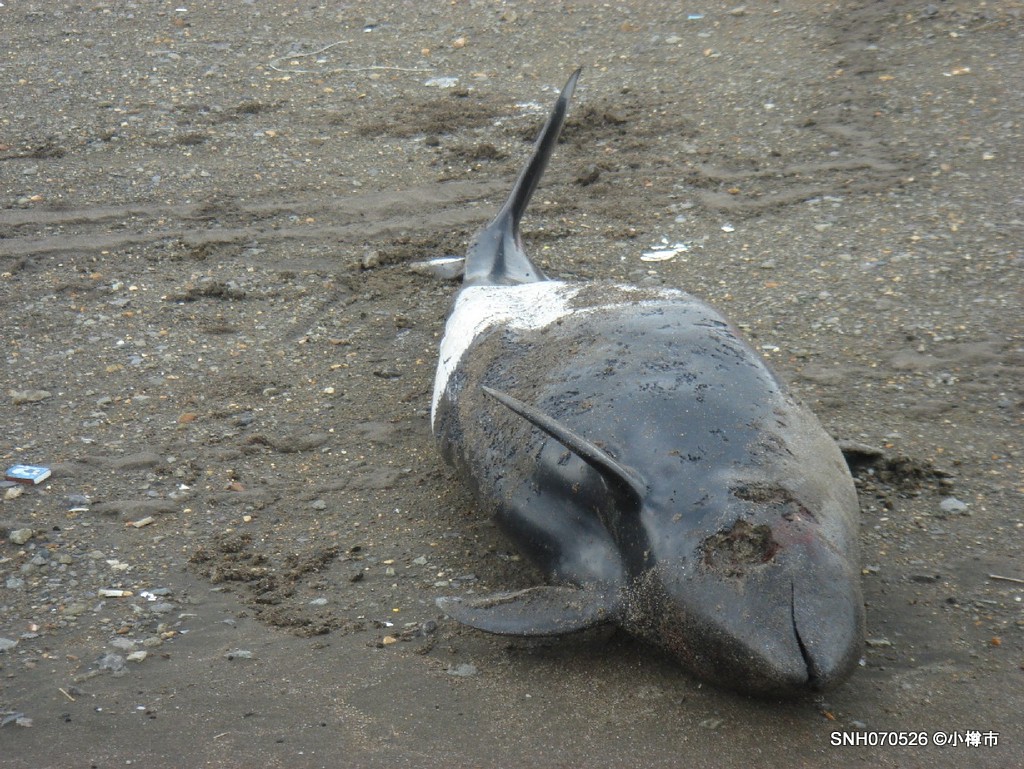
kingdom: Animalia
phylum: Chordata
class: Mammalia
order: Cetacea
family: Phocoenidae
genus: Phocoenoides
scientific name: Phocoenoides dalli
